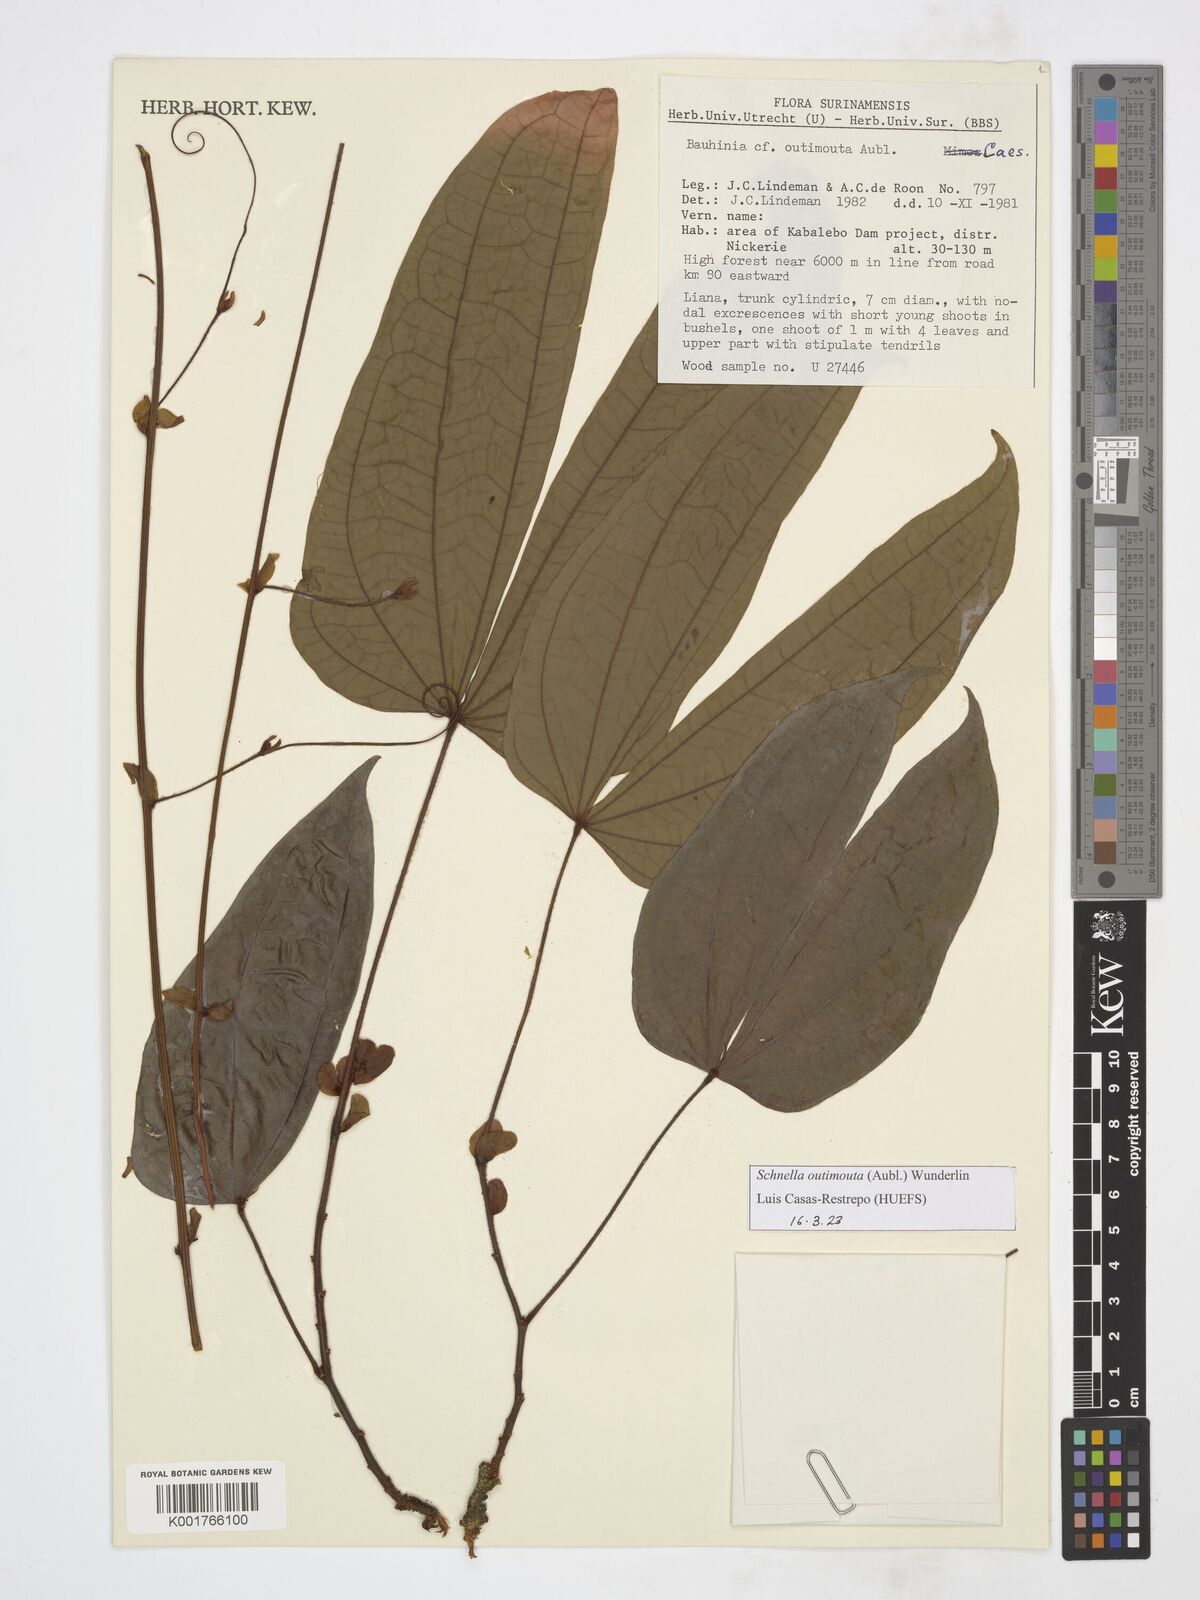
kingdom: Plantae
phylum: Tracheophyta
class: Magnoliopsida
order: Fabales
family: Fabaceae
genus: Schnella
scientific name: Schnella outimouta
